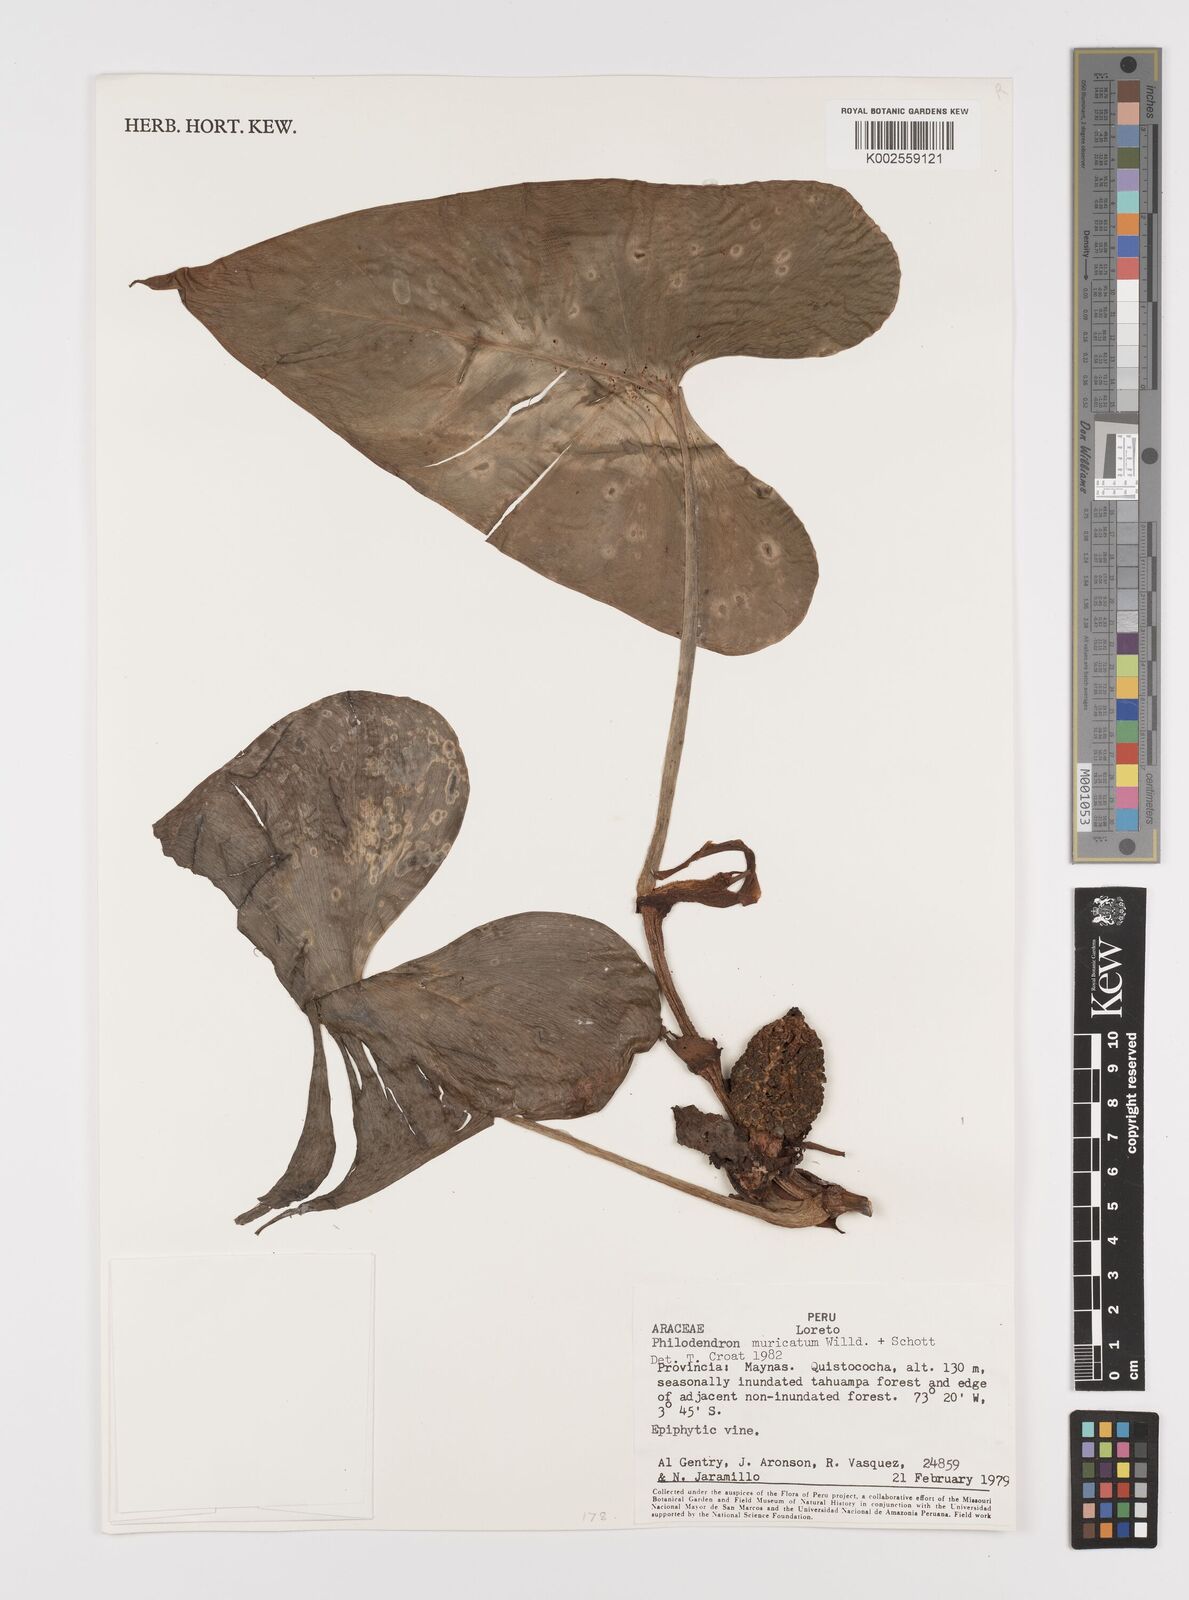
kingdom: Plantae
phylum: Tracheophyta
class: Liliopsida
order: Alismatales
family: Araceae
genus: Philodendron
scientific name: Philodendron muricatum
